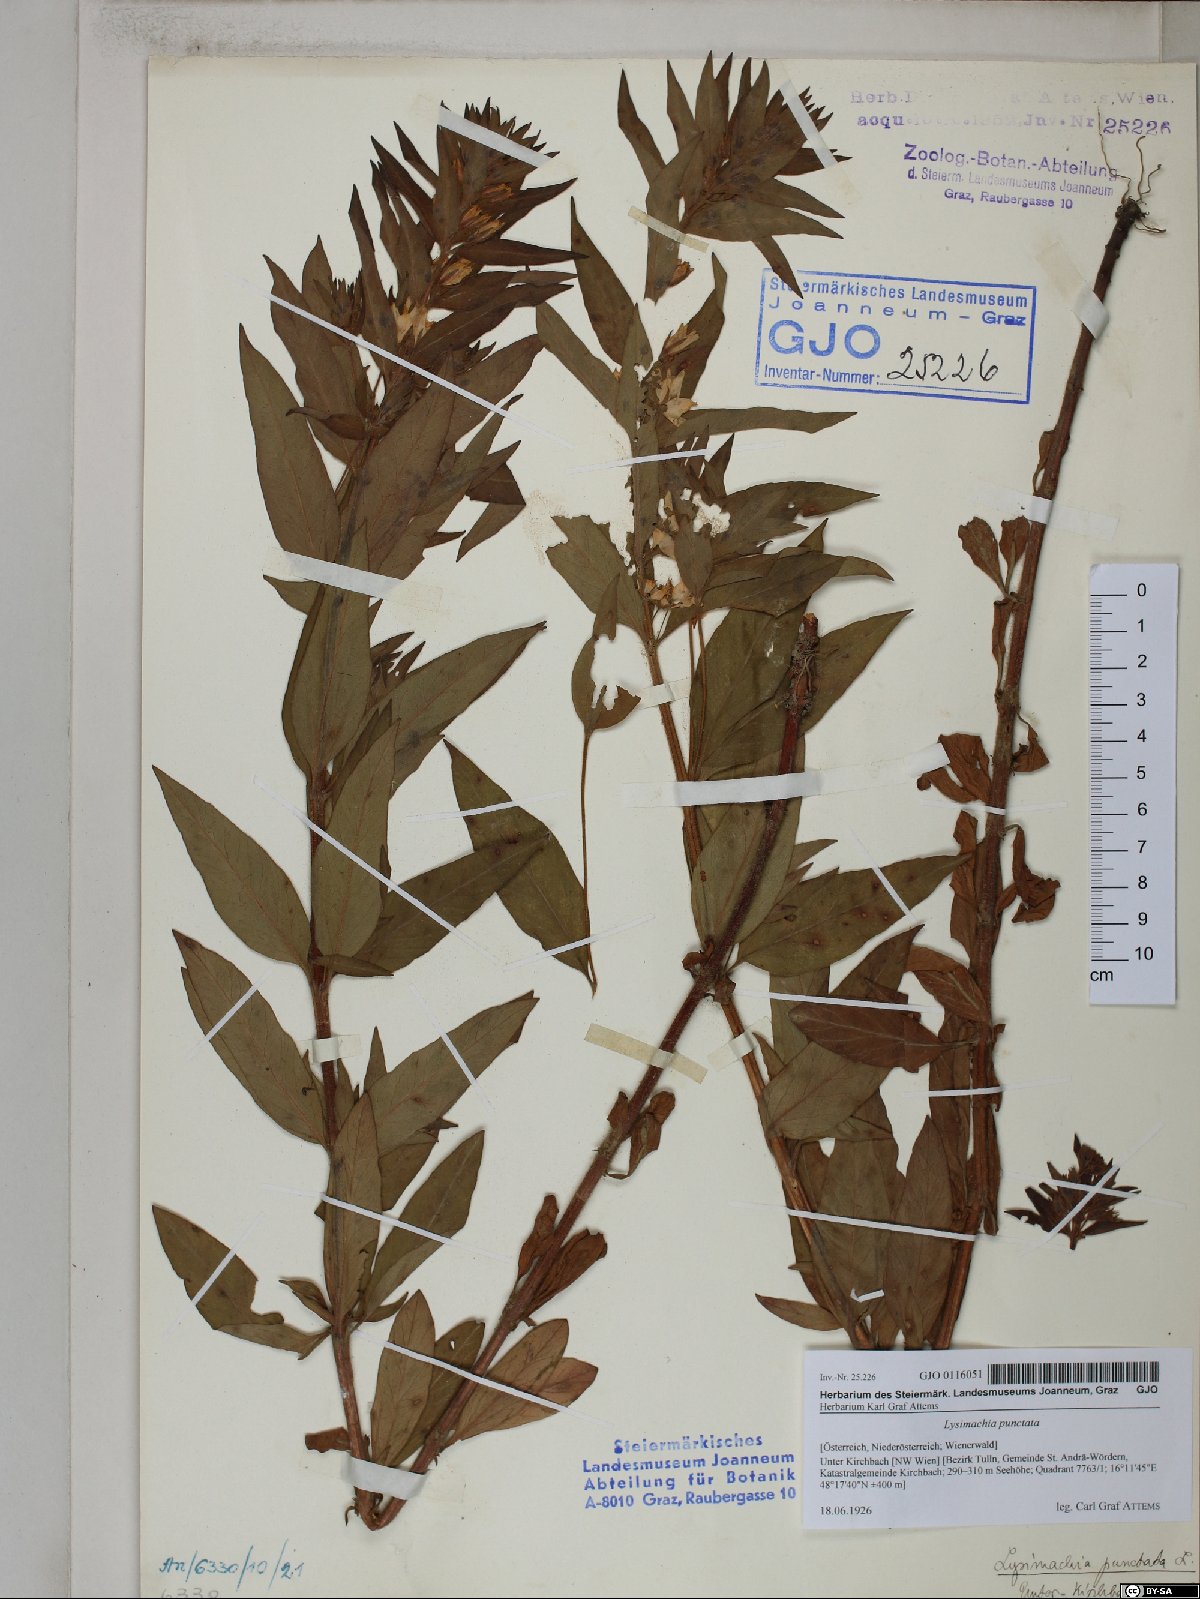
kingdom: Plantae
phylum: Tracheophyta
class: Magnoliopsida
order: Ericales
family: Primulaceae
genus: Lysimachia
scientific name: Lysimachia punctata
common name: Dotted loosestrife
